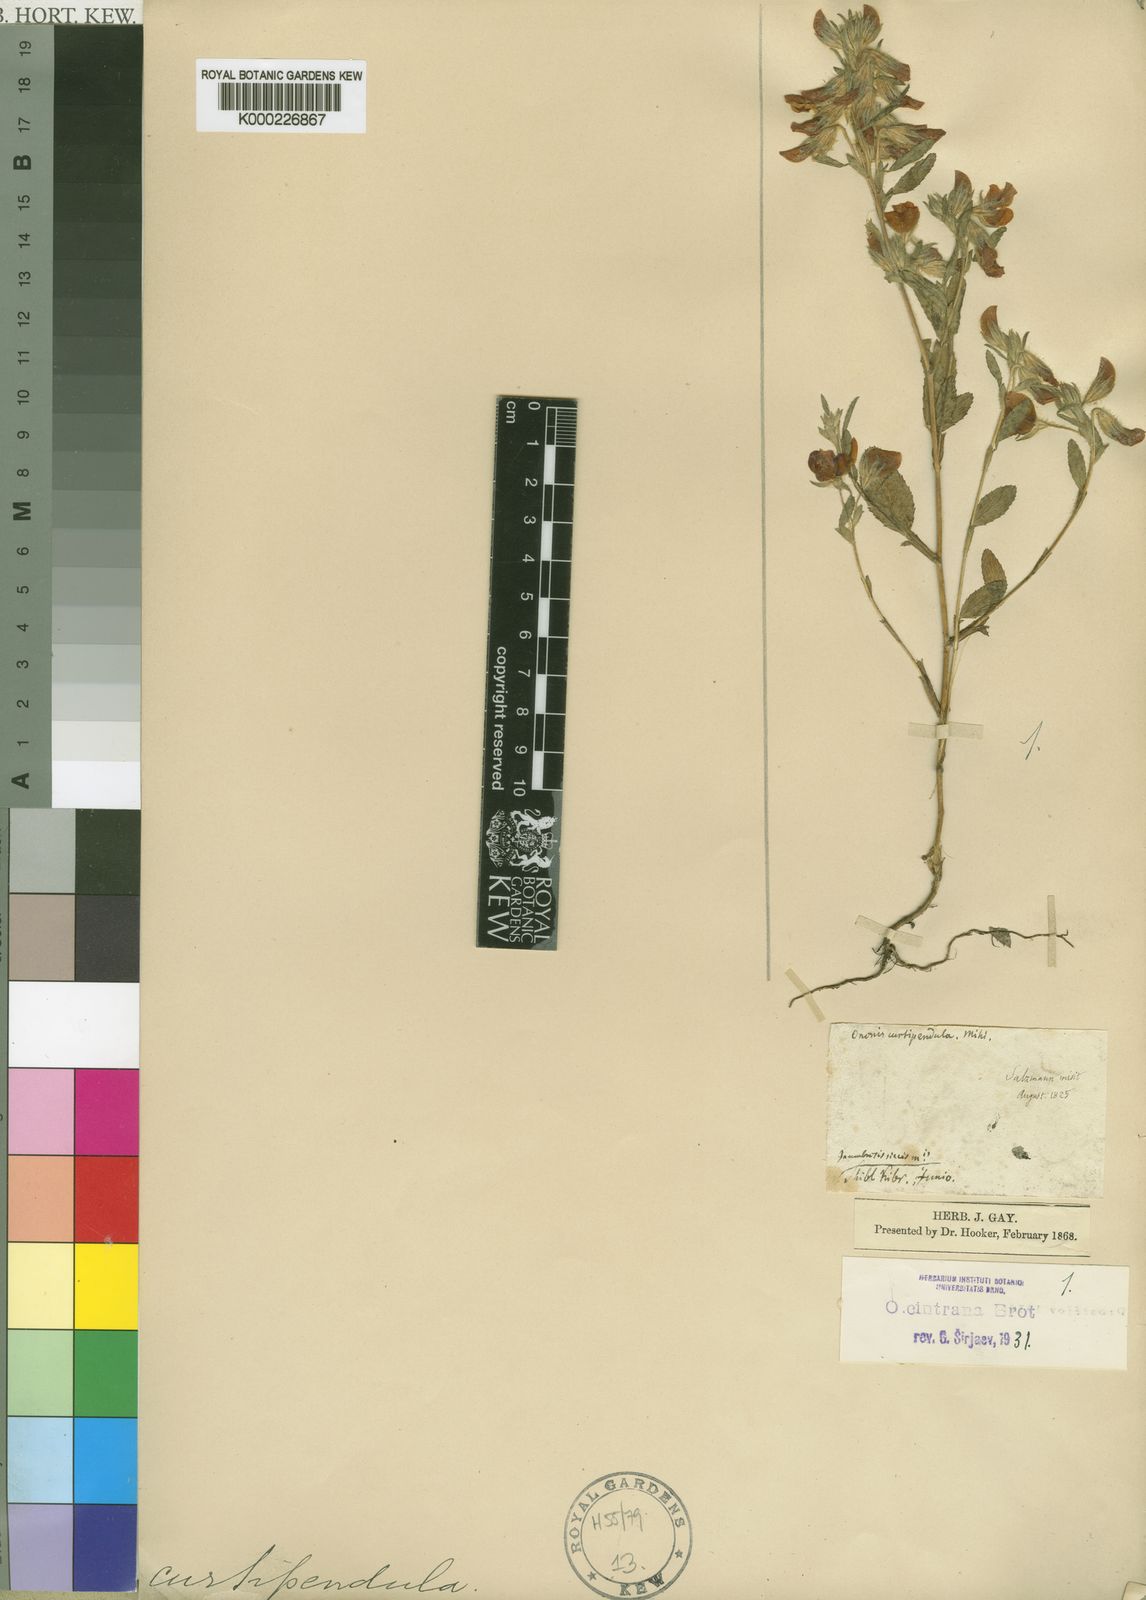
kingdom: Plantae
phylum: Tracheophyta
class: Magnoliopsida
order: Fabales
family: Fabaceae
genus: Ononis
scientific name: Ononis cintrana
